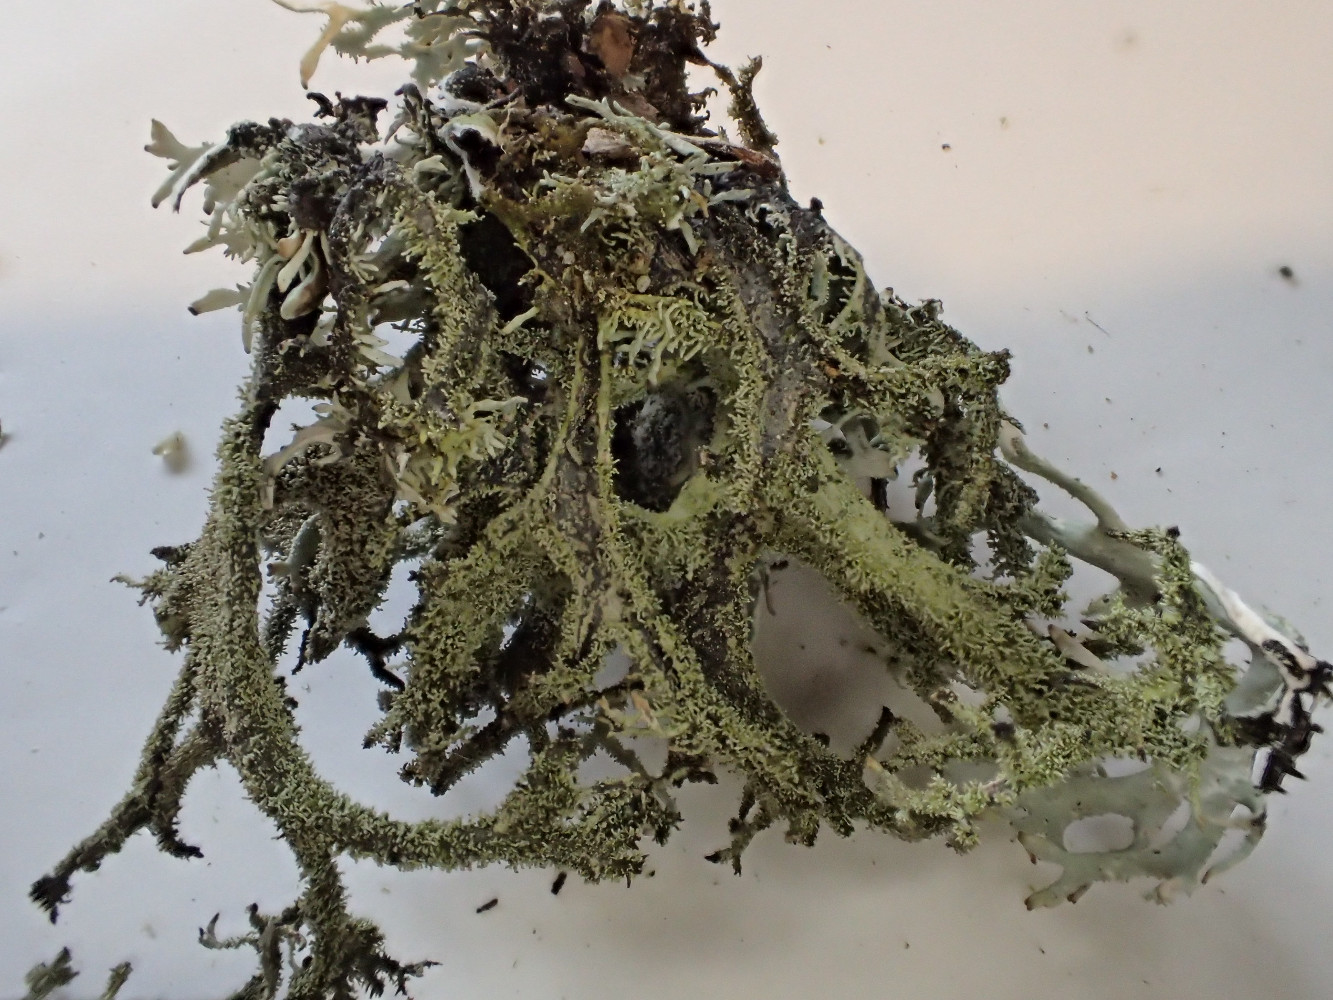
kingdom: Fungi
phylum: Ascomycota
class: Lecanoromycetes
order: Lecanorales
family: Parmeliaceae
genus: Pseudevernia
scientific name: Pseudevernia furfuracea
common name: grå fyrrelav
